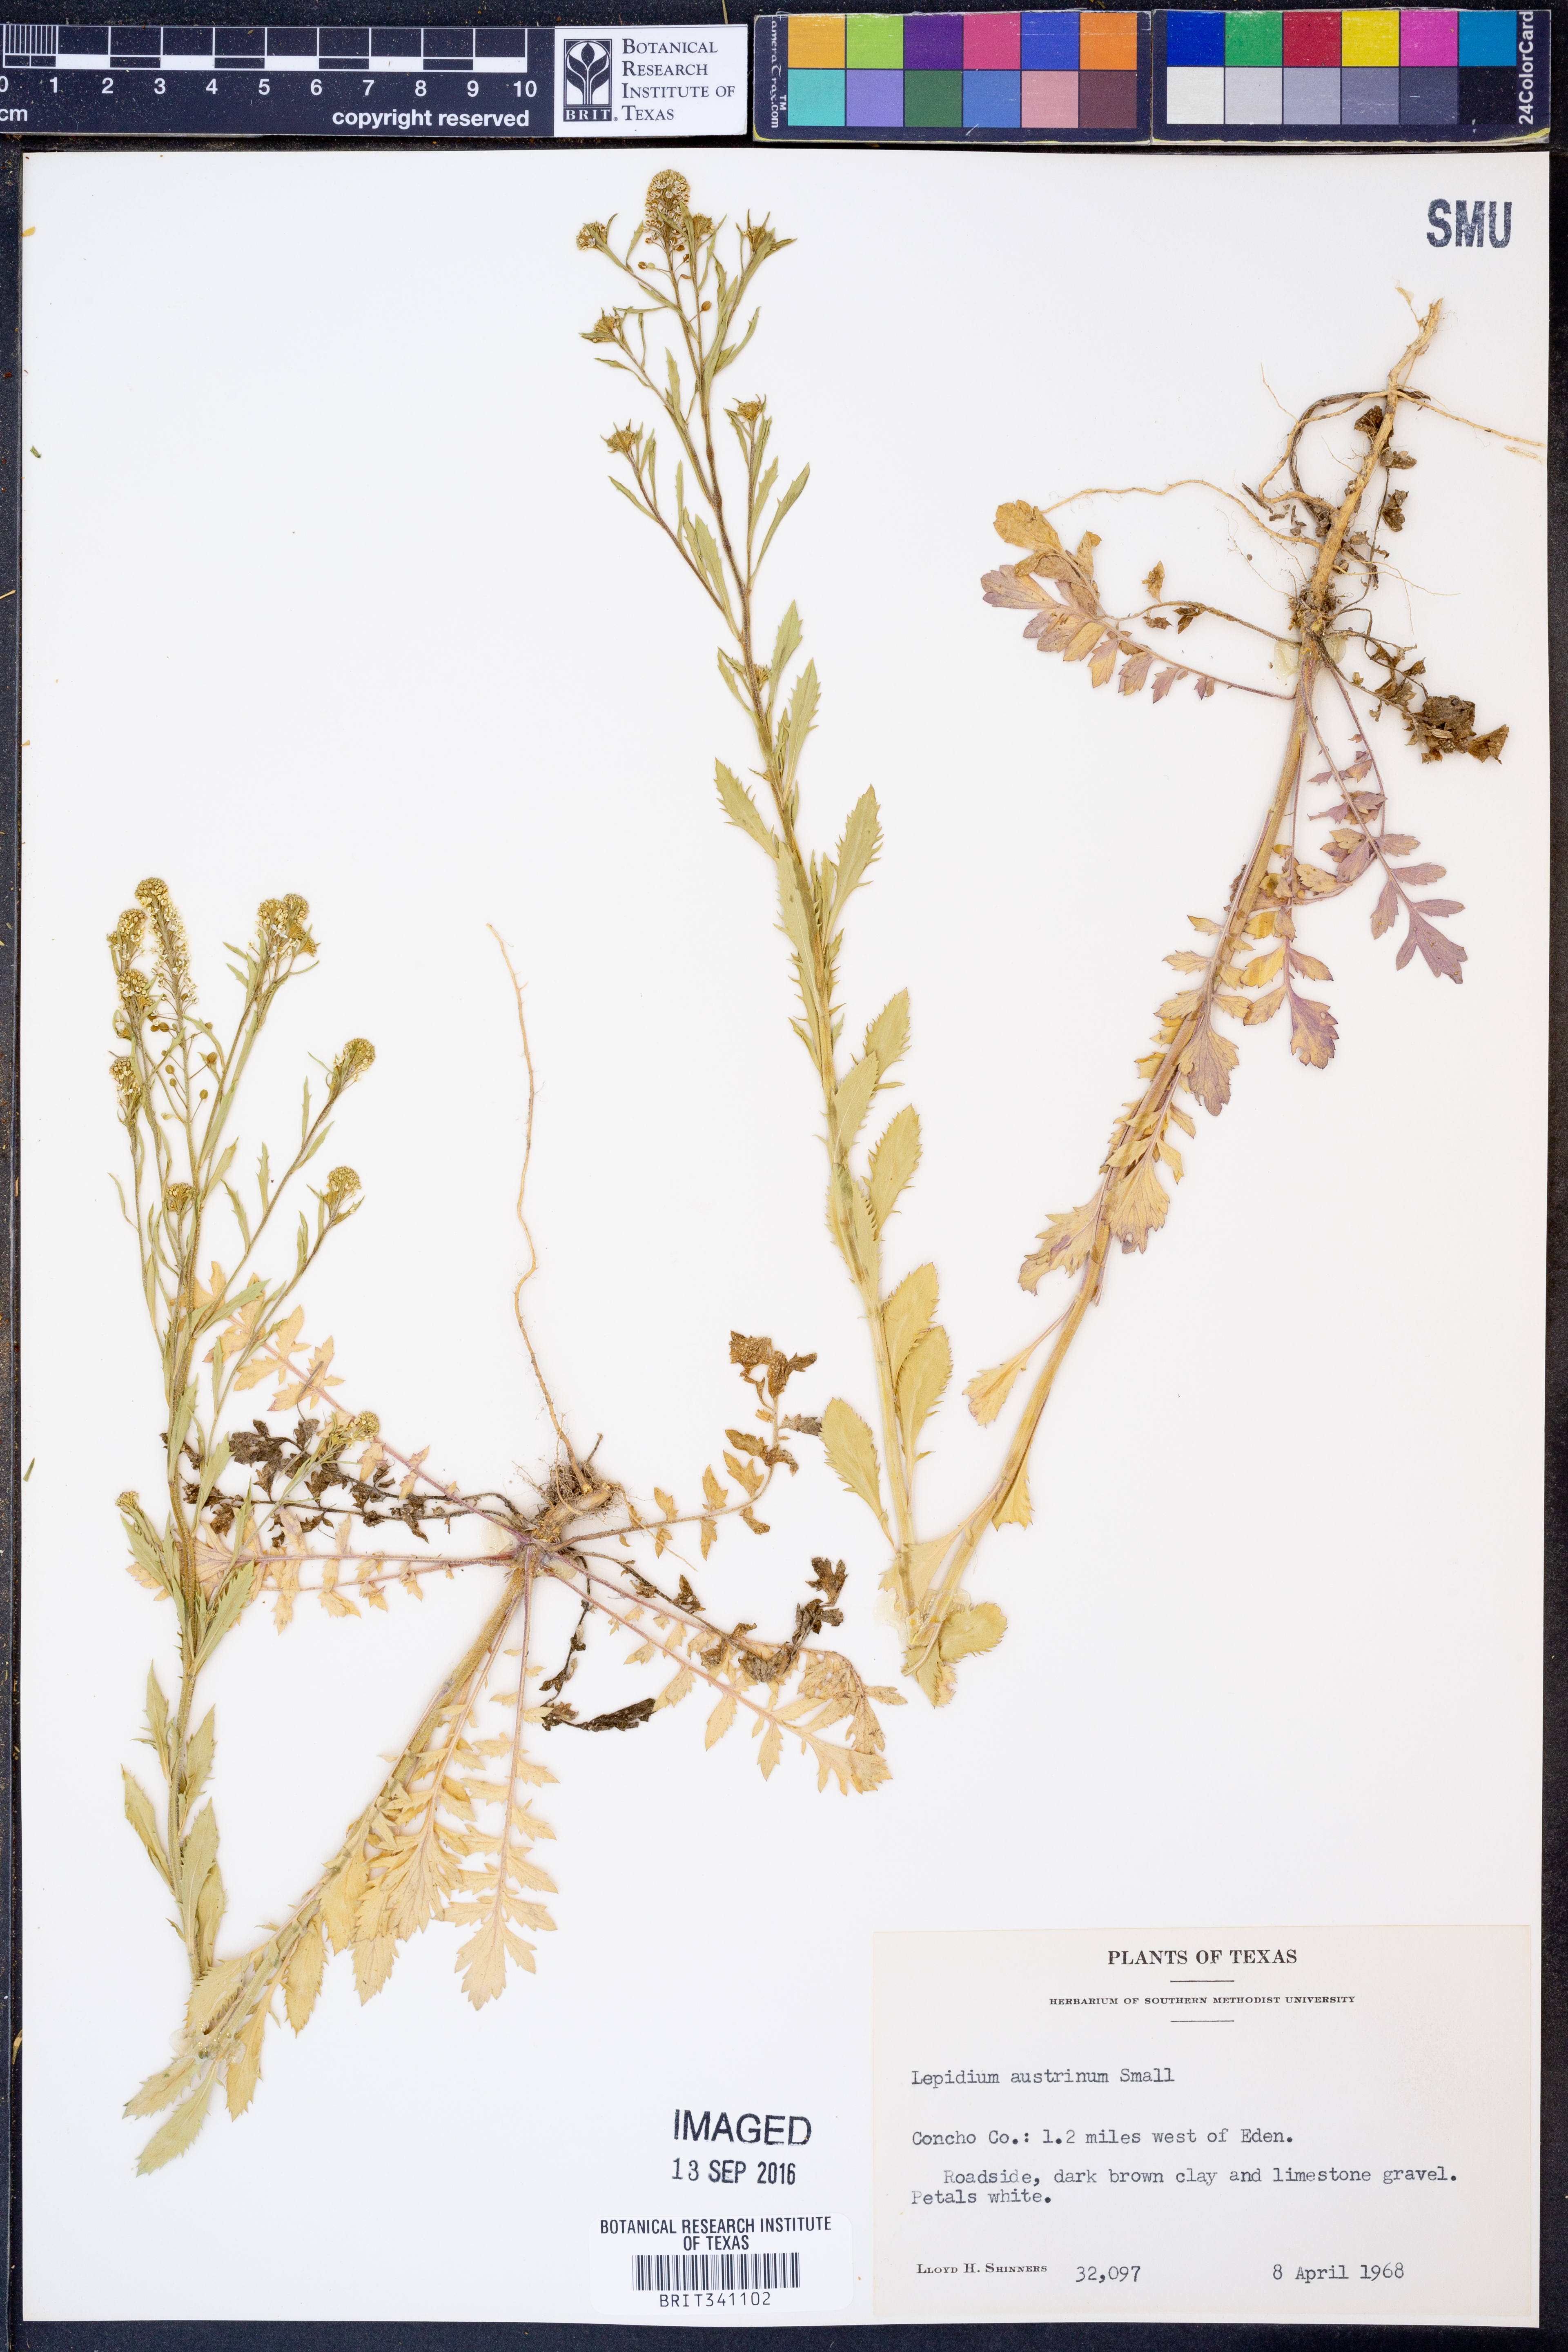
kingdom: Plantae
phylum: Tracheophyta
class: Magnoliopsida
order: Brassicales
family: Brassicaceae
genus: Lepidium
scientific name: Lepidium austrinum
